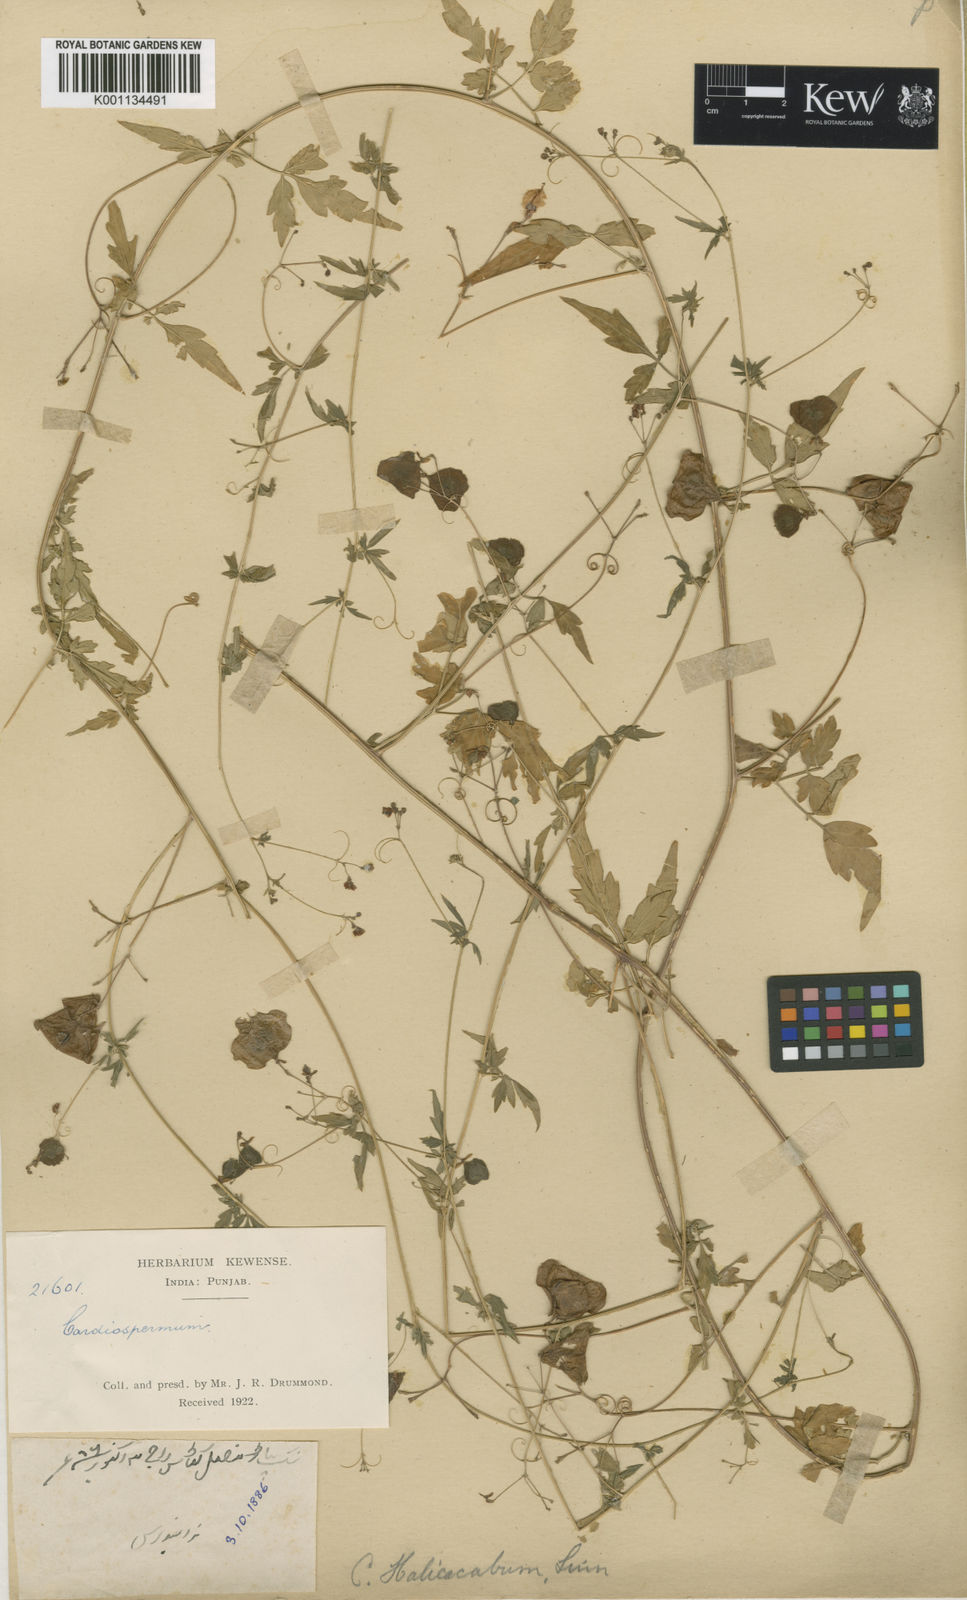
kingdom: Plantae
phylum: Tracheophyta
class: Magnoliopsida
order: Sapindales
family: Sapindaceae
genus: Cardiospermum
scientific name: Cardiospermum halicacabum
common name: Balloon vine
